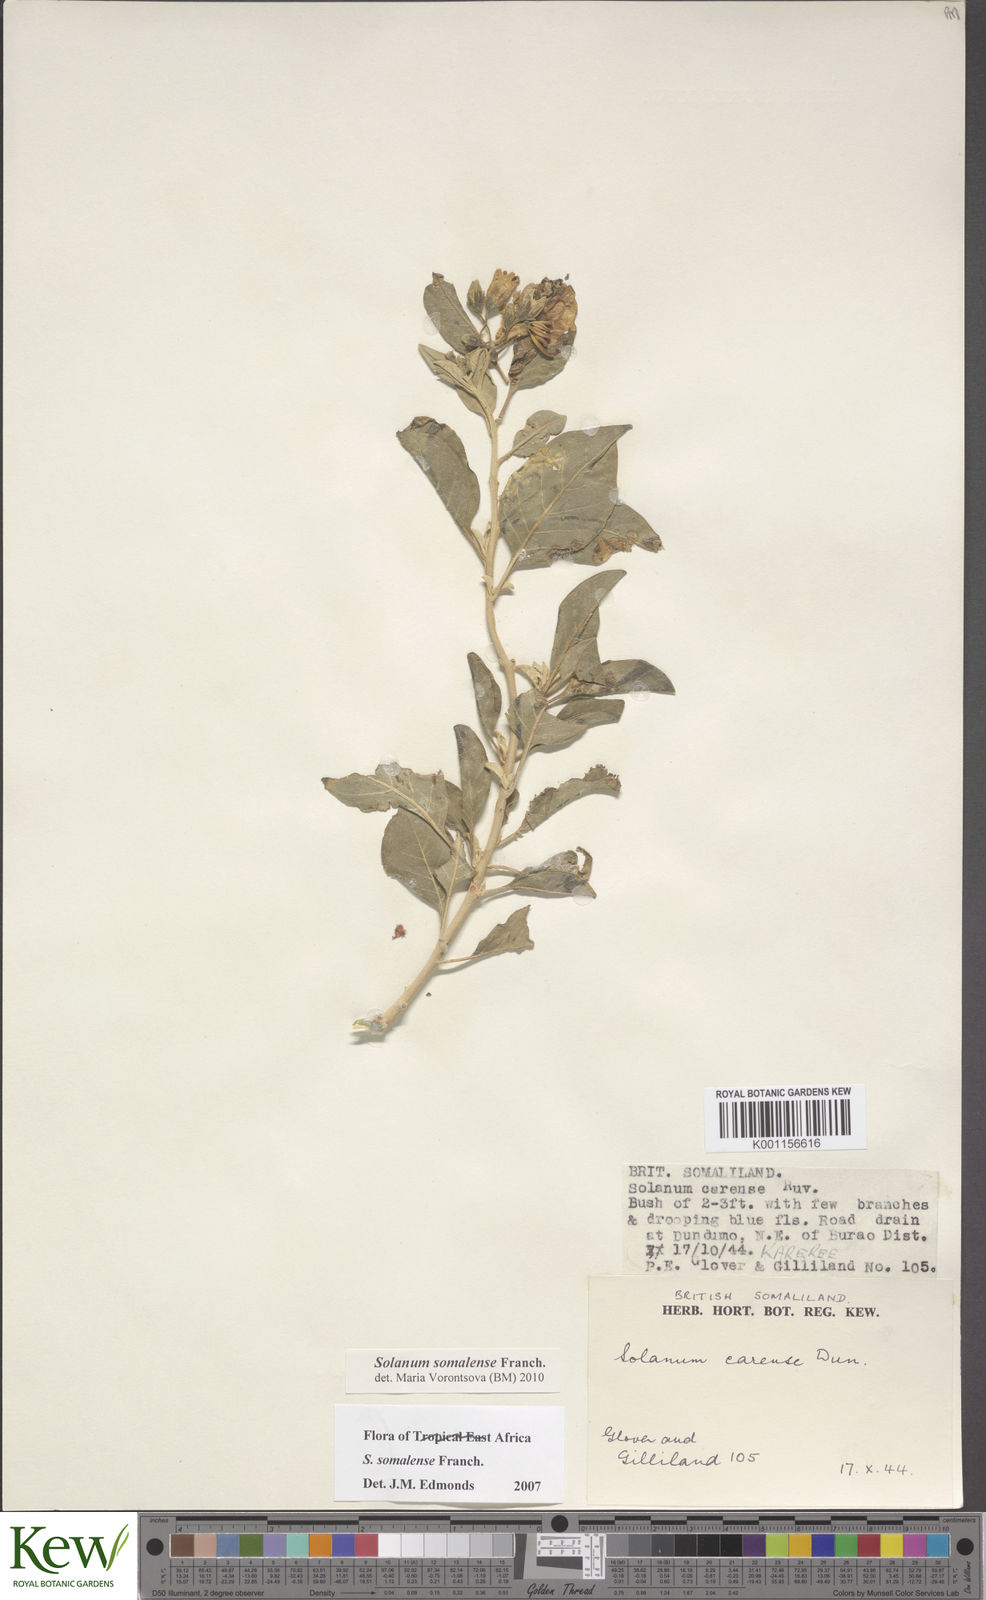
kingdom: Plantae
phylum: Tracheophyta
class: Magnoliopsida
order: Solanales
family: Solanaceae
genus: Solanum
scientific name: Solanum somalense
